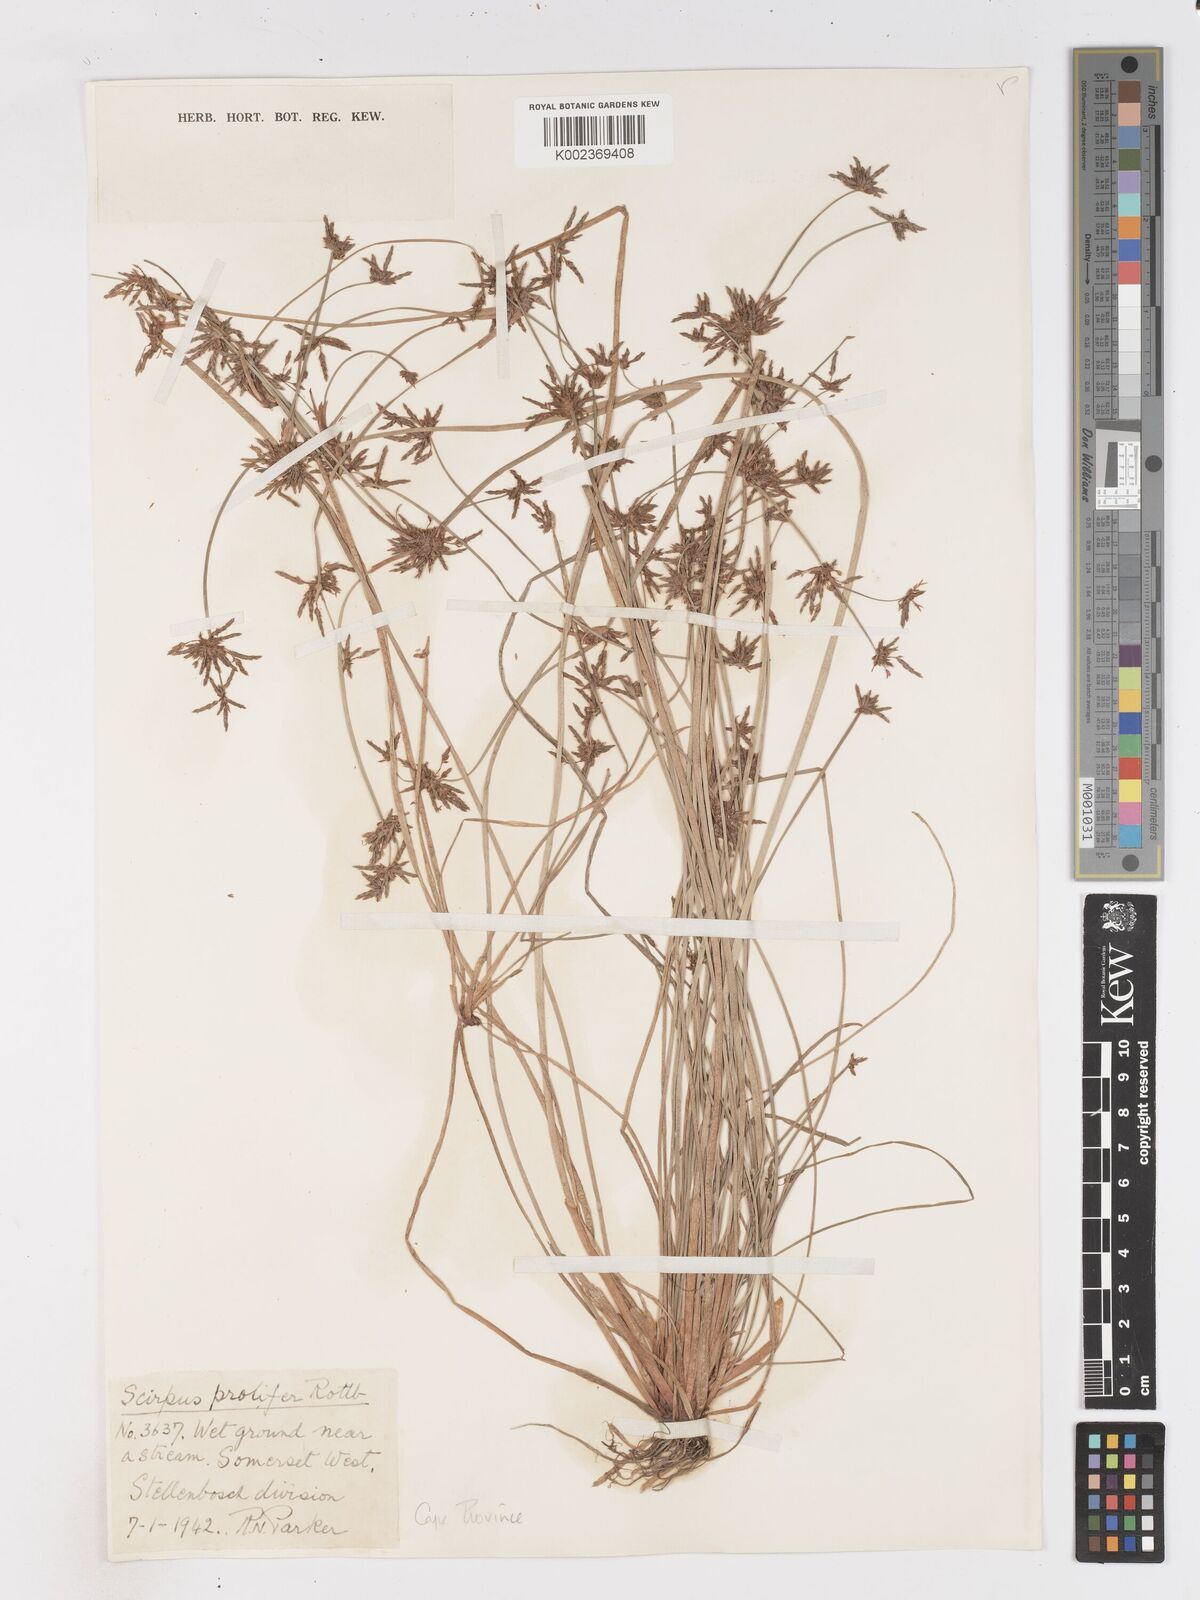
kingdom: Plantae
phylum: Tracheophyta
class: Liliopsida
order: Poales
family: Cyperaceae
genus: Isolepis
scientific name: Isolepis prolifera
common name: Proliferating bulrush
